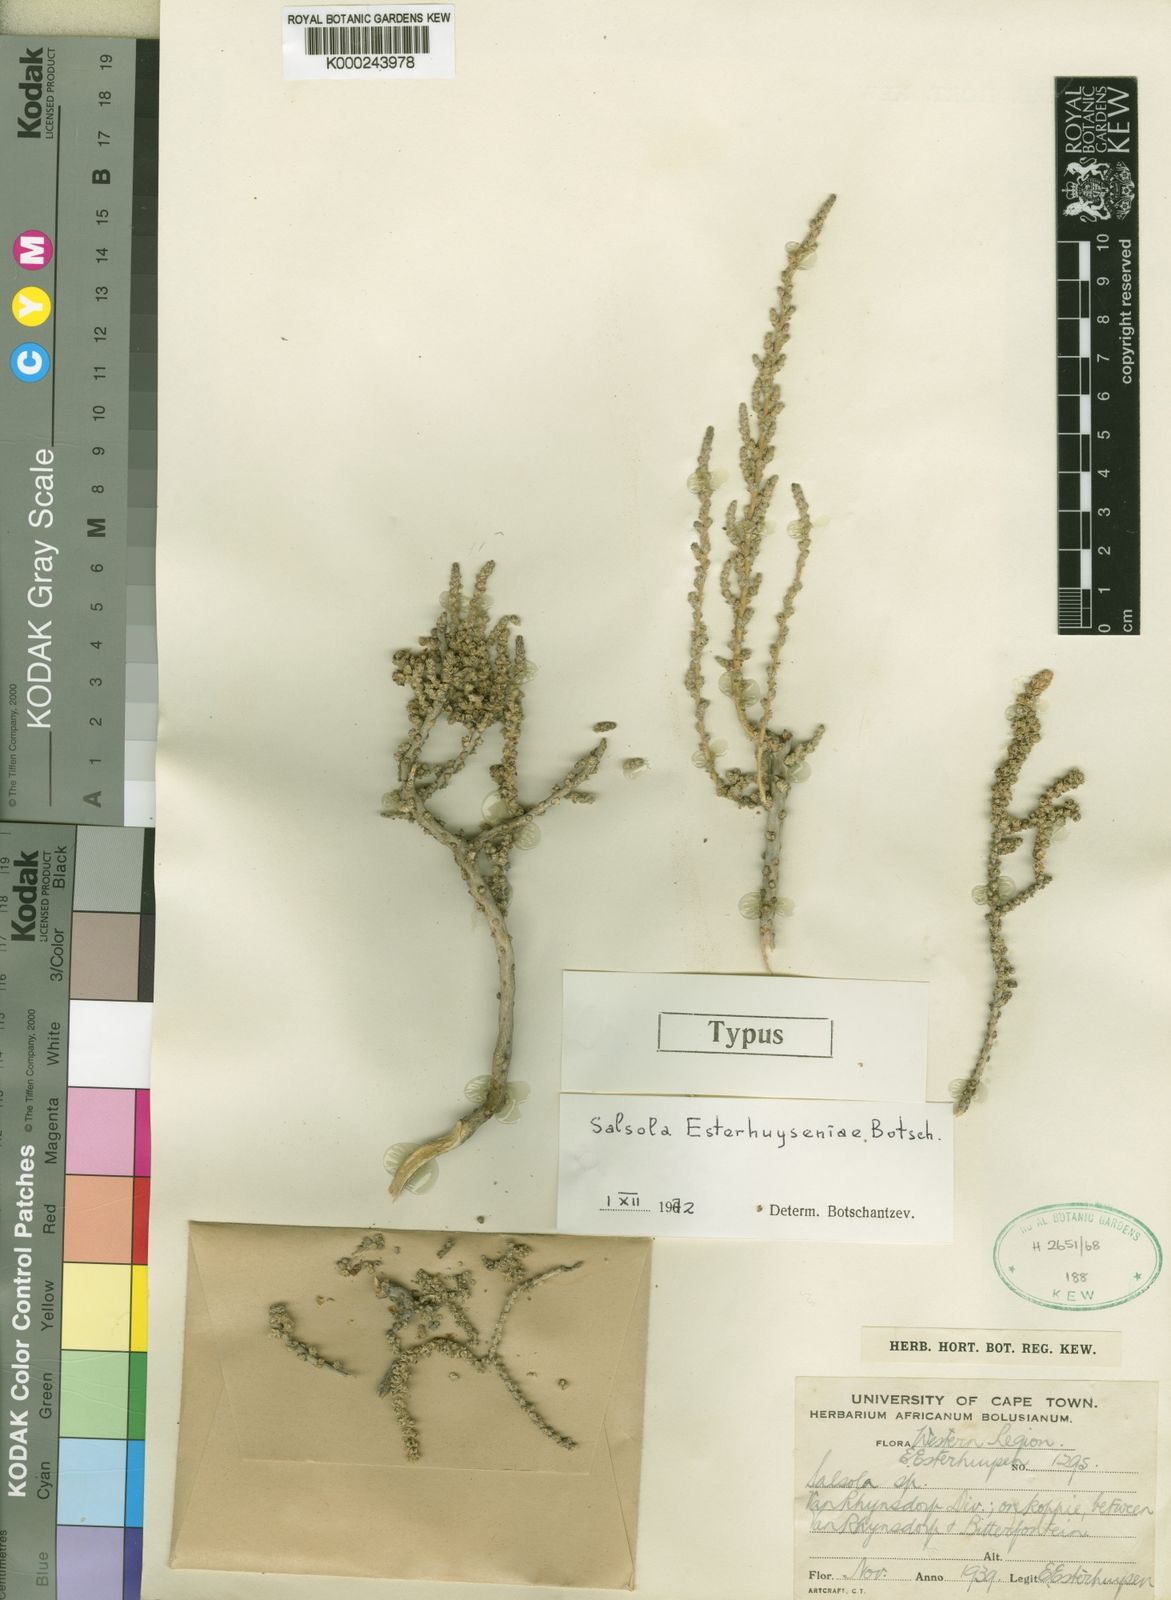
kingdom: Plantae
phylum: Tracheophyta
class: Magnoliopsida
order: Caryophyllales
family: Amaranthaceae
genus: Caroxylon
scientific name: Caroxylon esterhuyseniae
